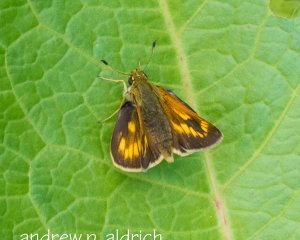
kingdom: Animalia
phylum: Arthropoda
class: Insecta
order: Lepidoptera
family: Hesperiidae
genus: Polites
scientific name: Polites coras
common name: Peck's Skipper
